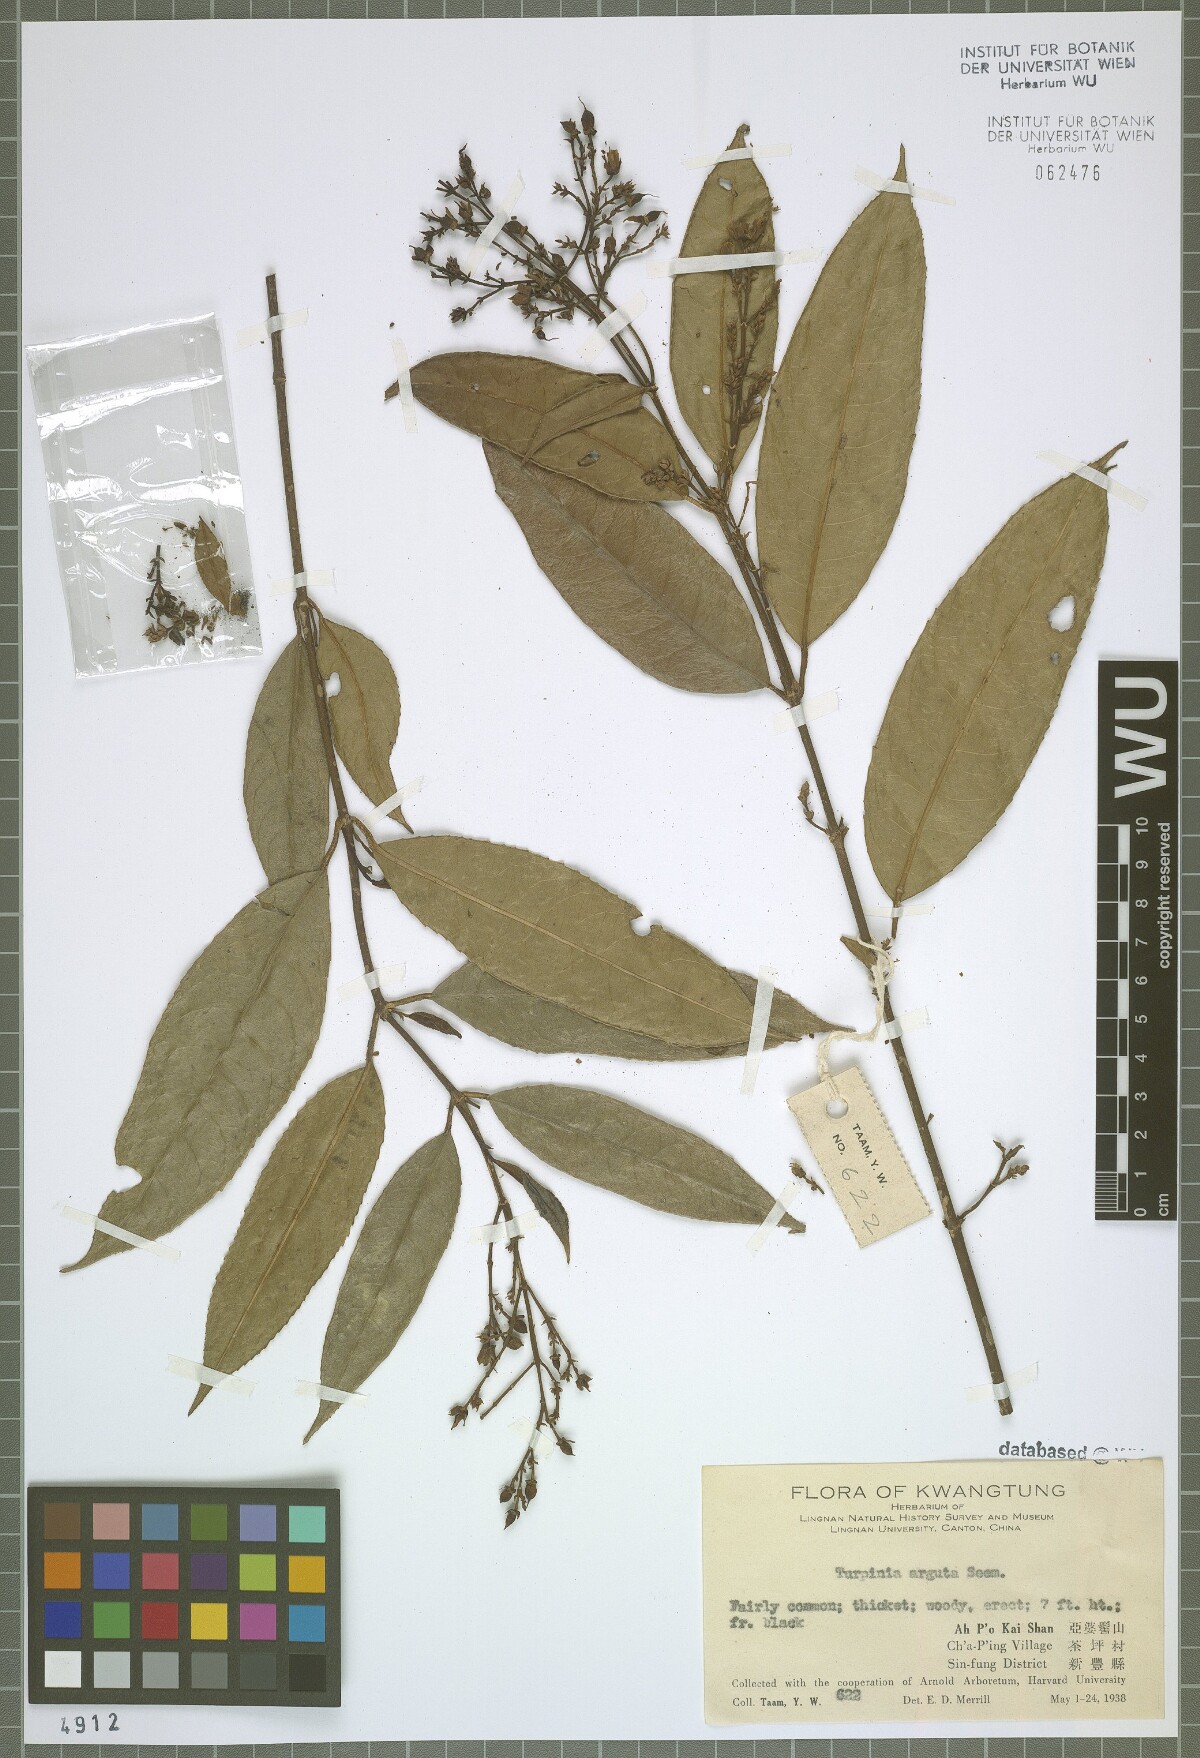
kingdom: Plantae
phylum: Tracheophyta
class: Magnoliopsida
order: Crossosomatales
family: Staphyleaceae
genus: Turpinia
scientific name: Turpinia arguta
